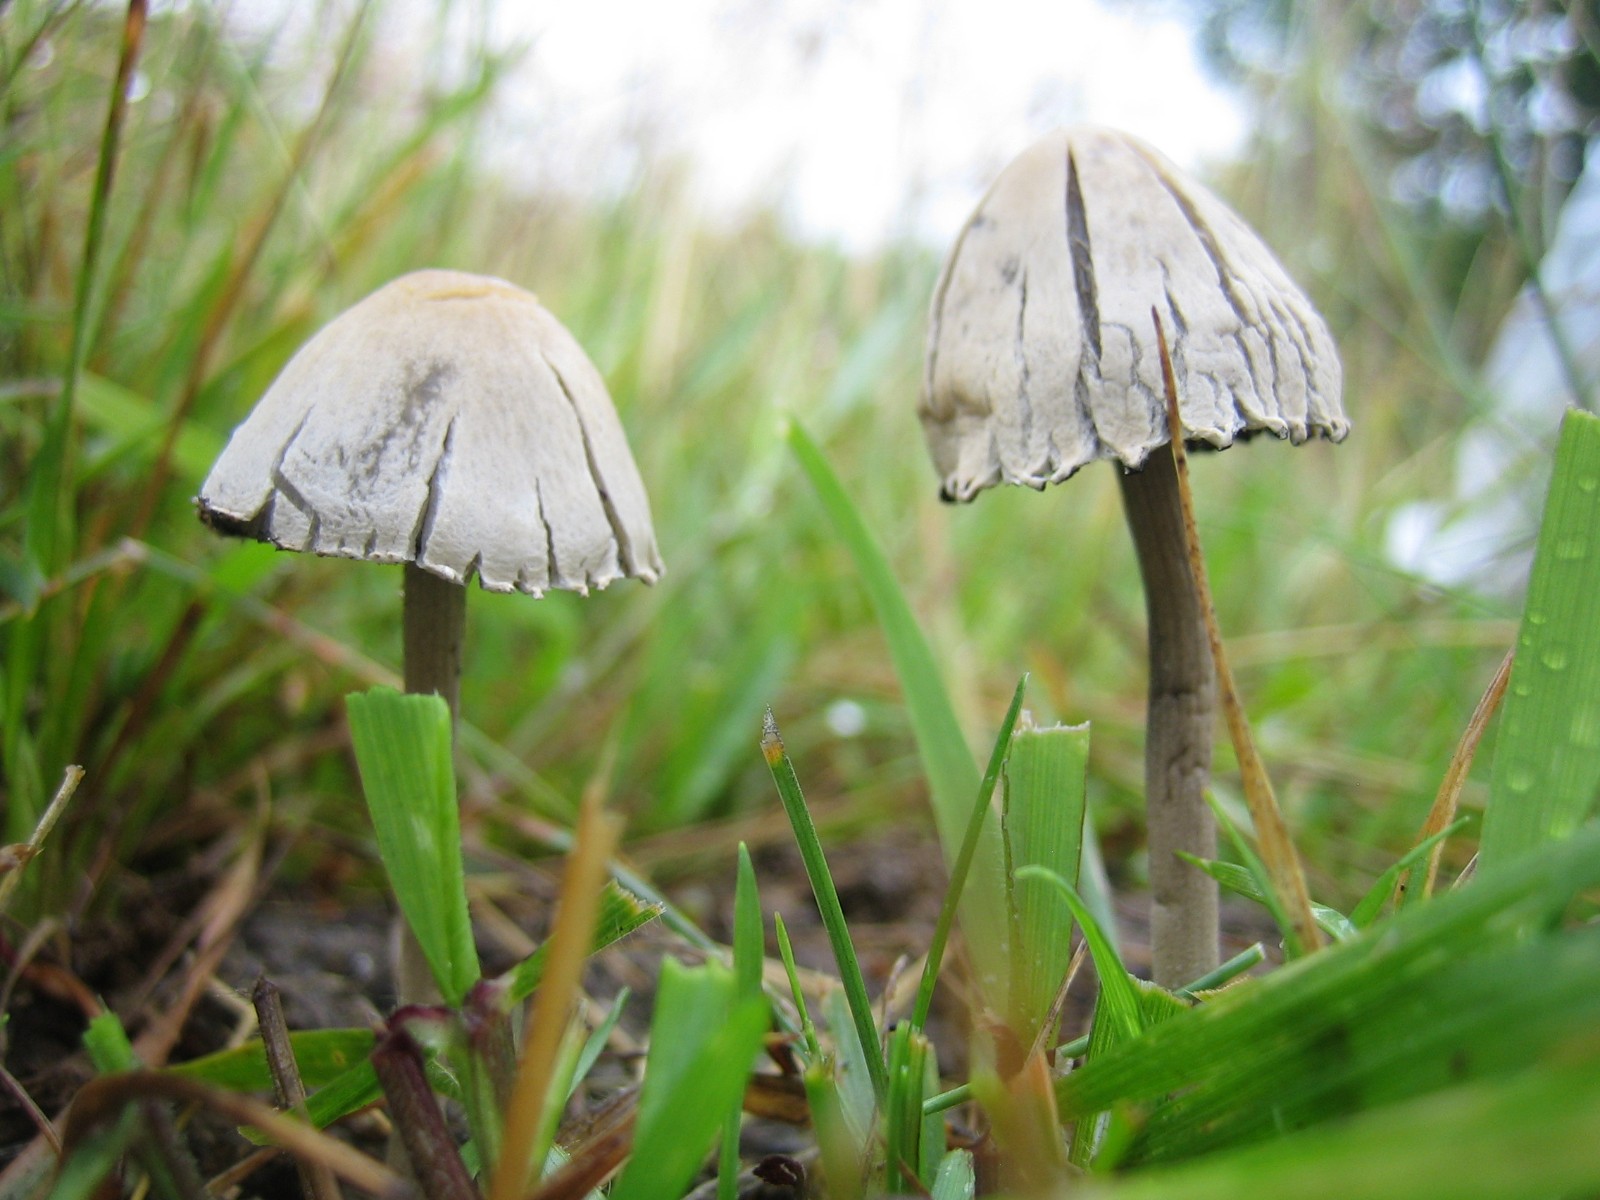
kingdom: Fungi
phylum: Basidiomycota
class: Agaricomycetes
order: Agaricales
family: Bolbitiaceae
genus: Panaeolus
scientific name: Panaeolus papilionaceus
